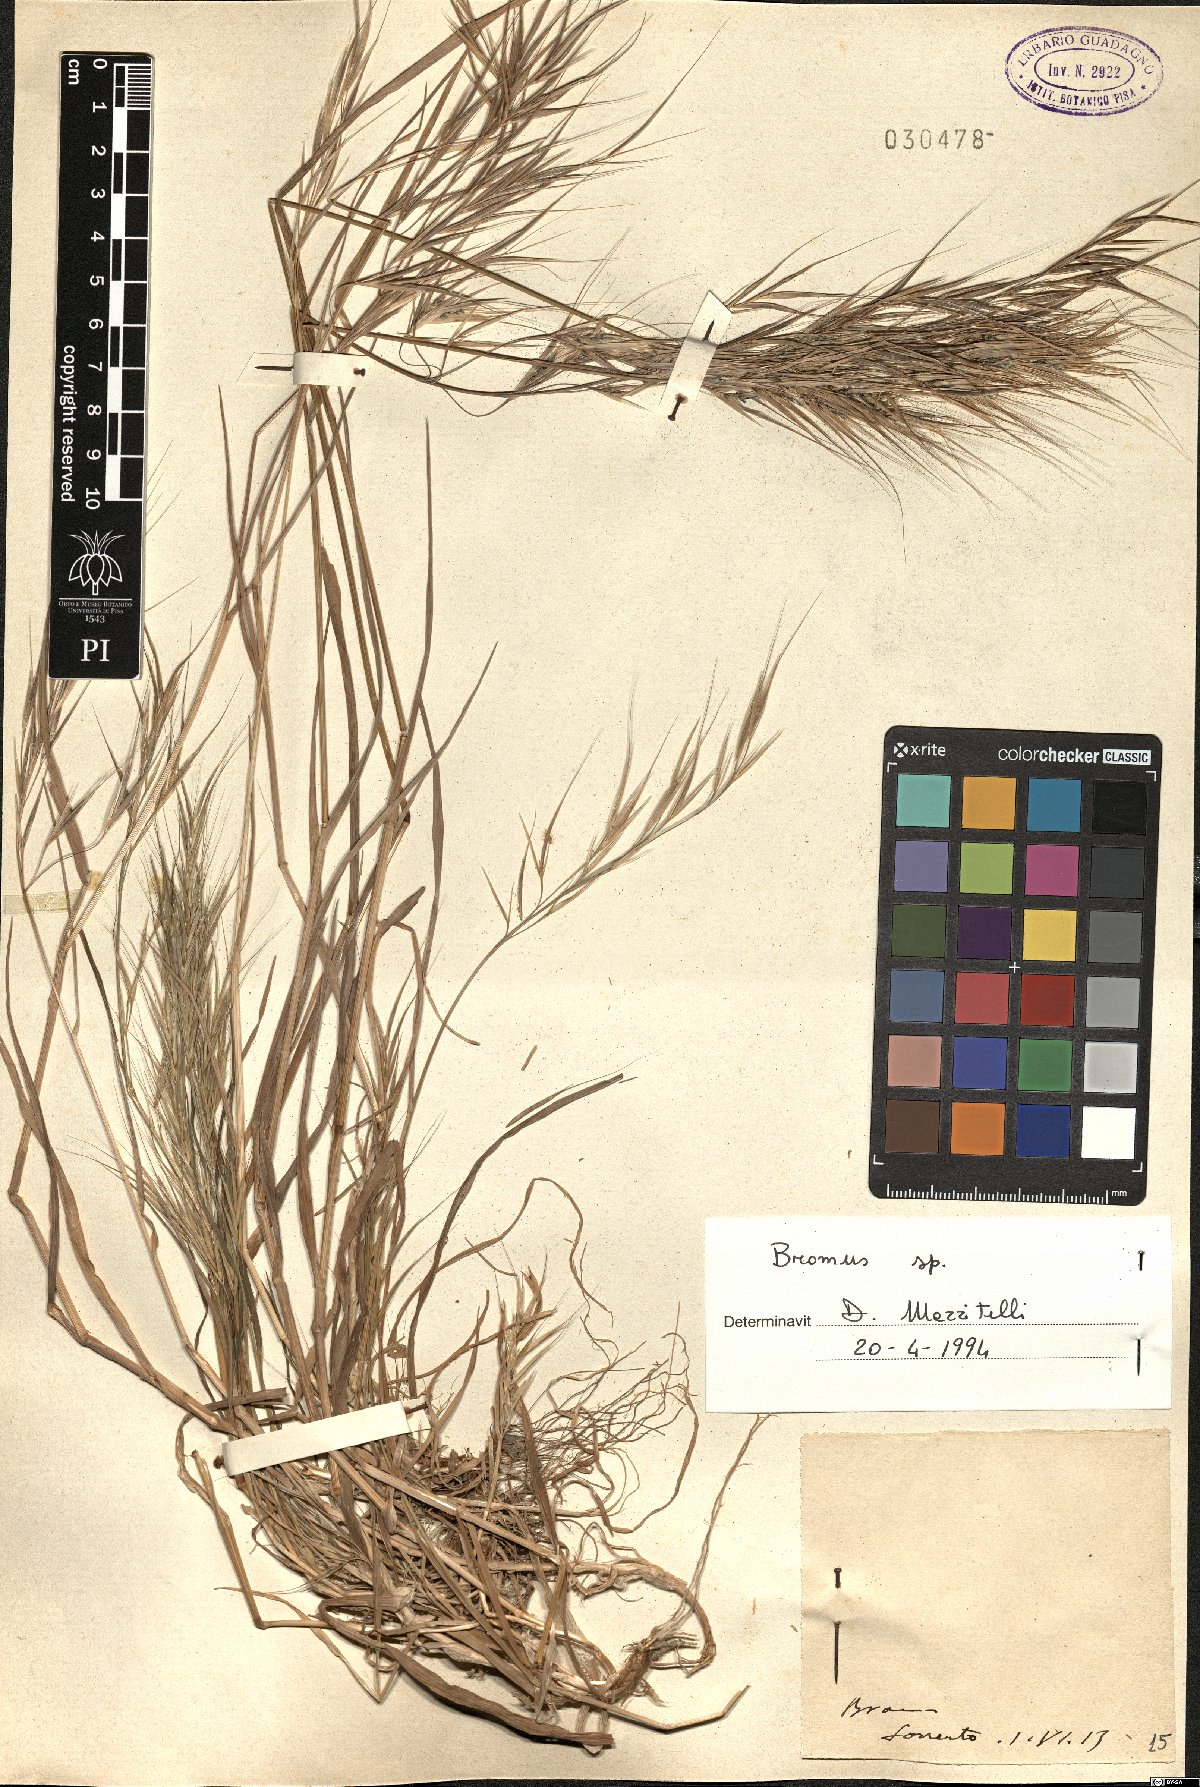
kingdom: Plantae
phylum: Tracheophyta
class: Liliopsida
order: Poales
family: Poaceae
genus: Bromus
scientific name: Bromus
